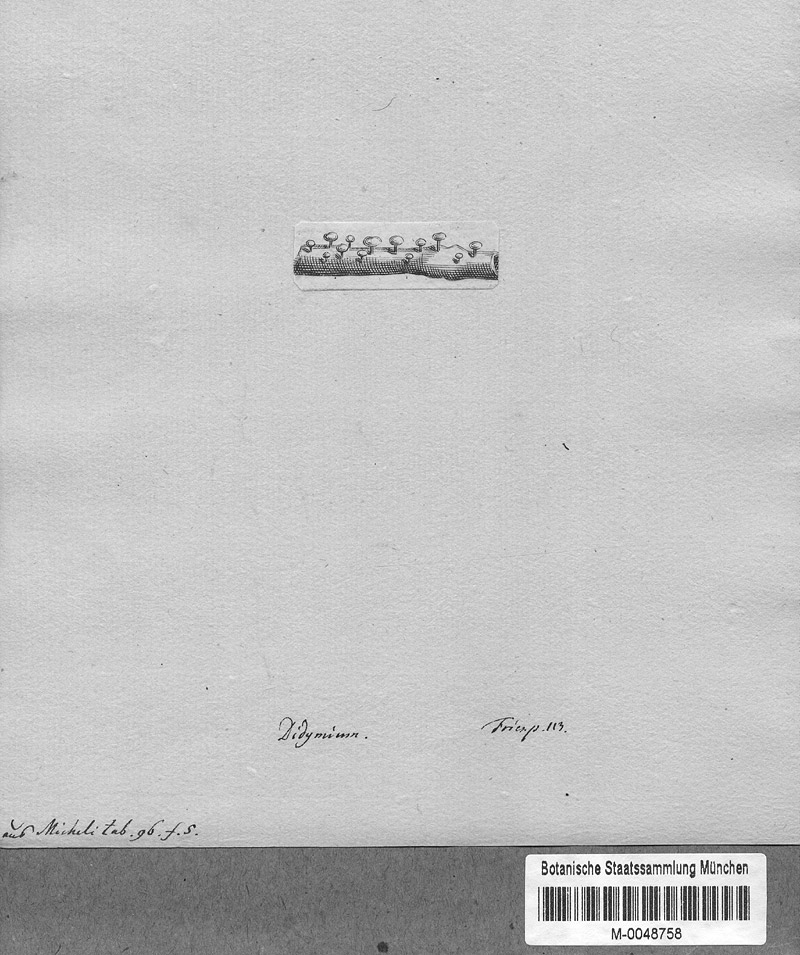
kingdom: Protozoa
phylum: Mycetozoa
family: Didymiidae
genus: Didymium
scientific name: Didymium
